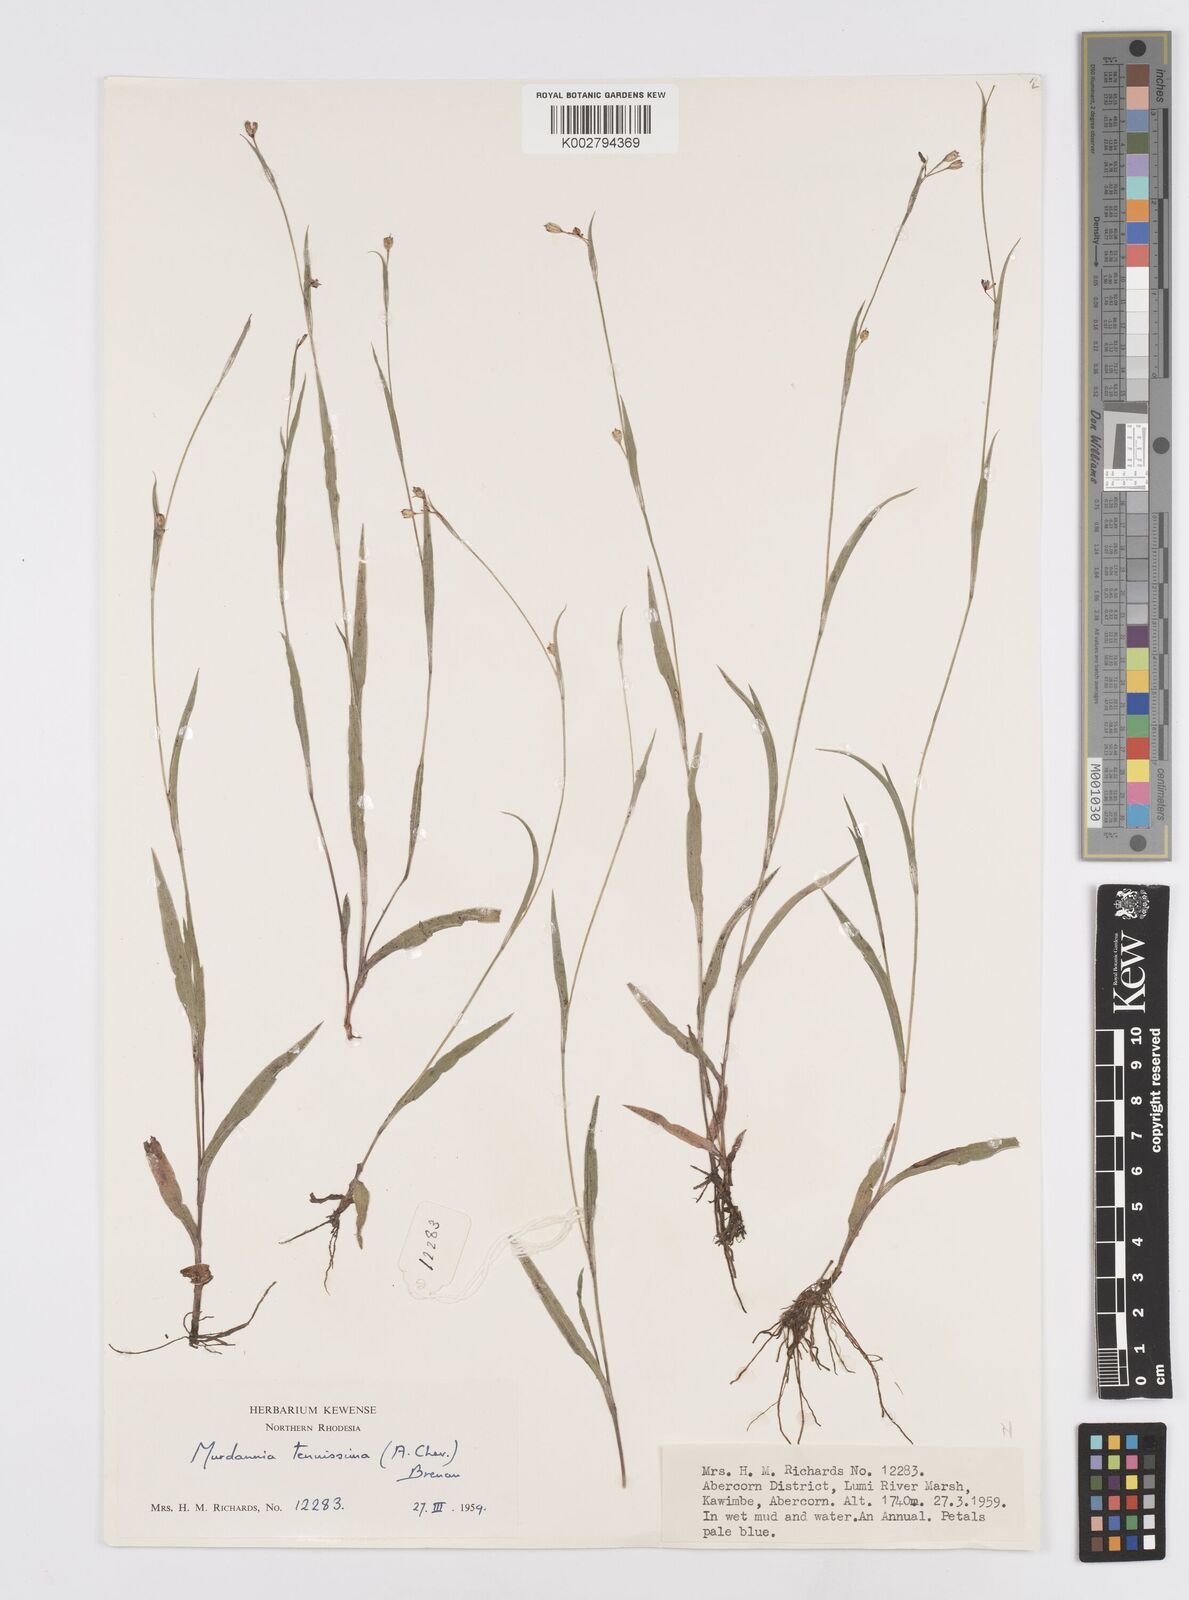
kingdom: Plantae
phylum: Tracheophyta
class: Liliopsida
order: Commelinales
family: Commelinaceae
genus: Murdannia
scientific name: Murdannia tenuissima
